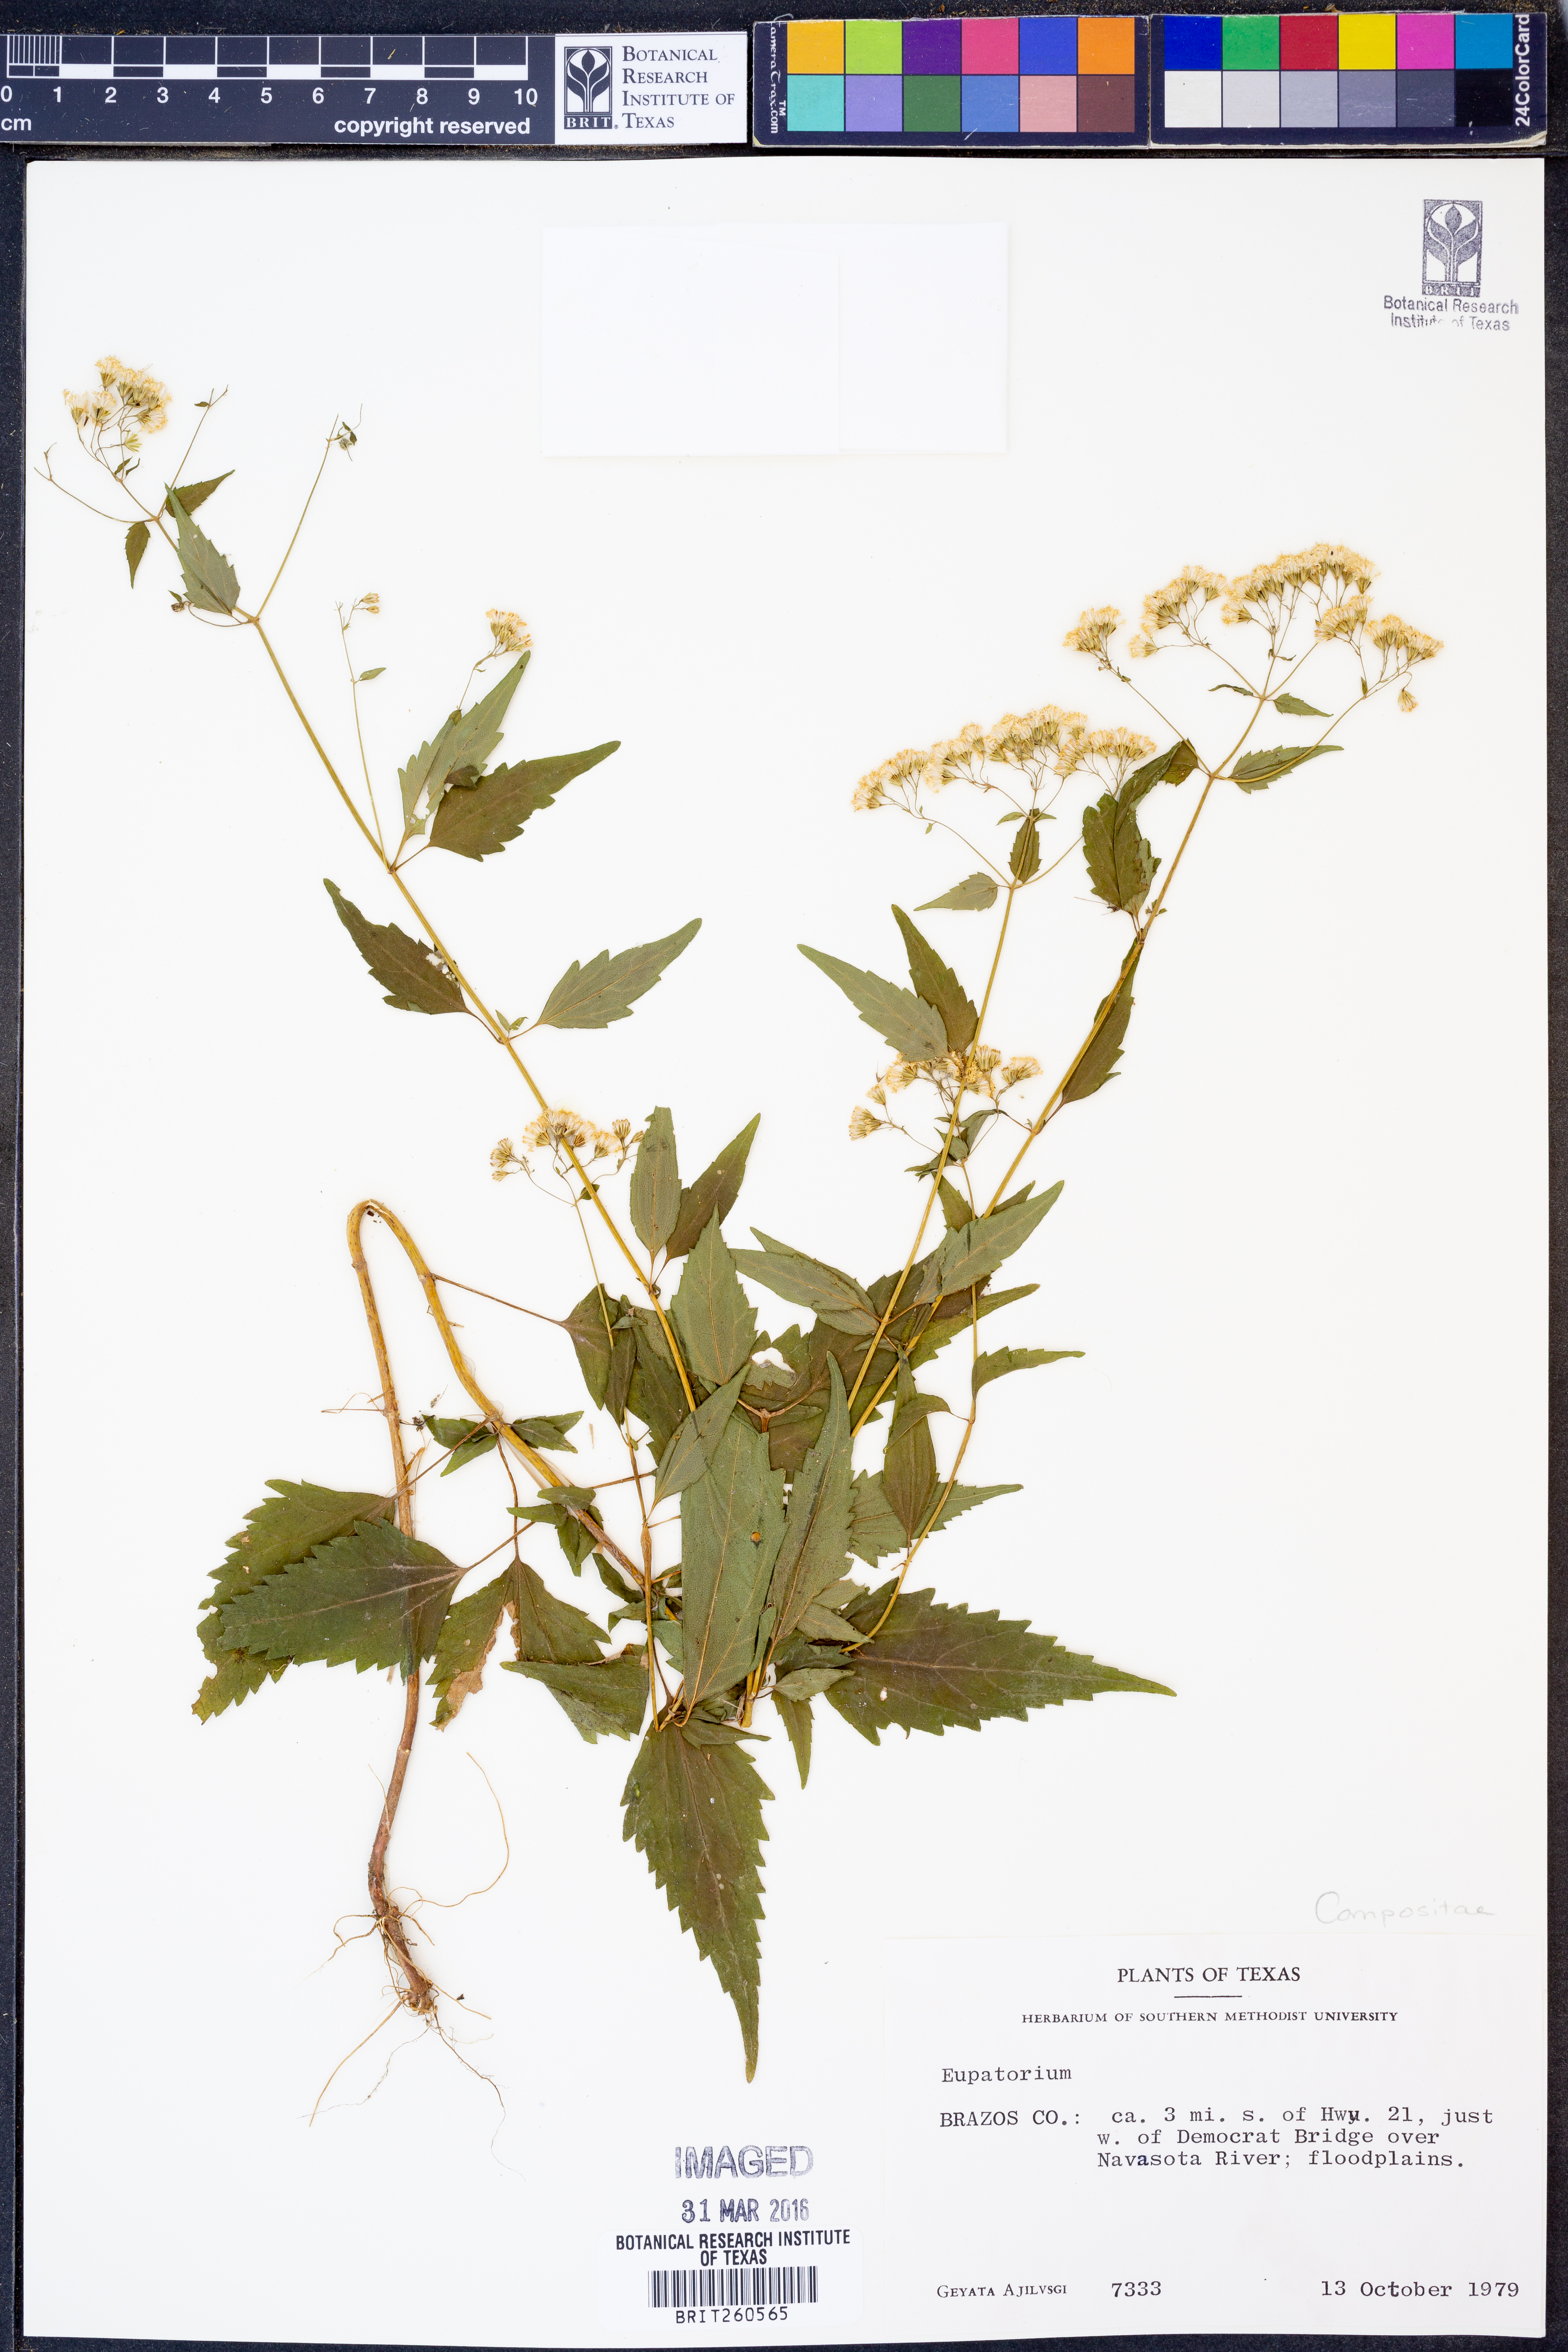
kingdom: Plantae
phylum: Tracheophyta
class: Magnoliopsida
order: Asterales
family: Asteraceae
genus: Eupatorium
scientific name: Eupatorium
